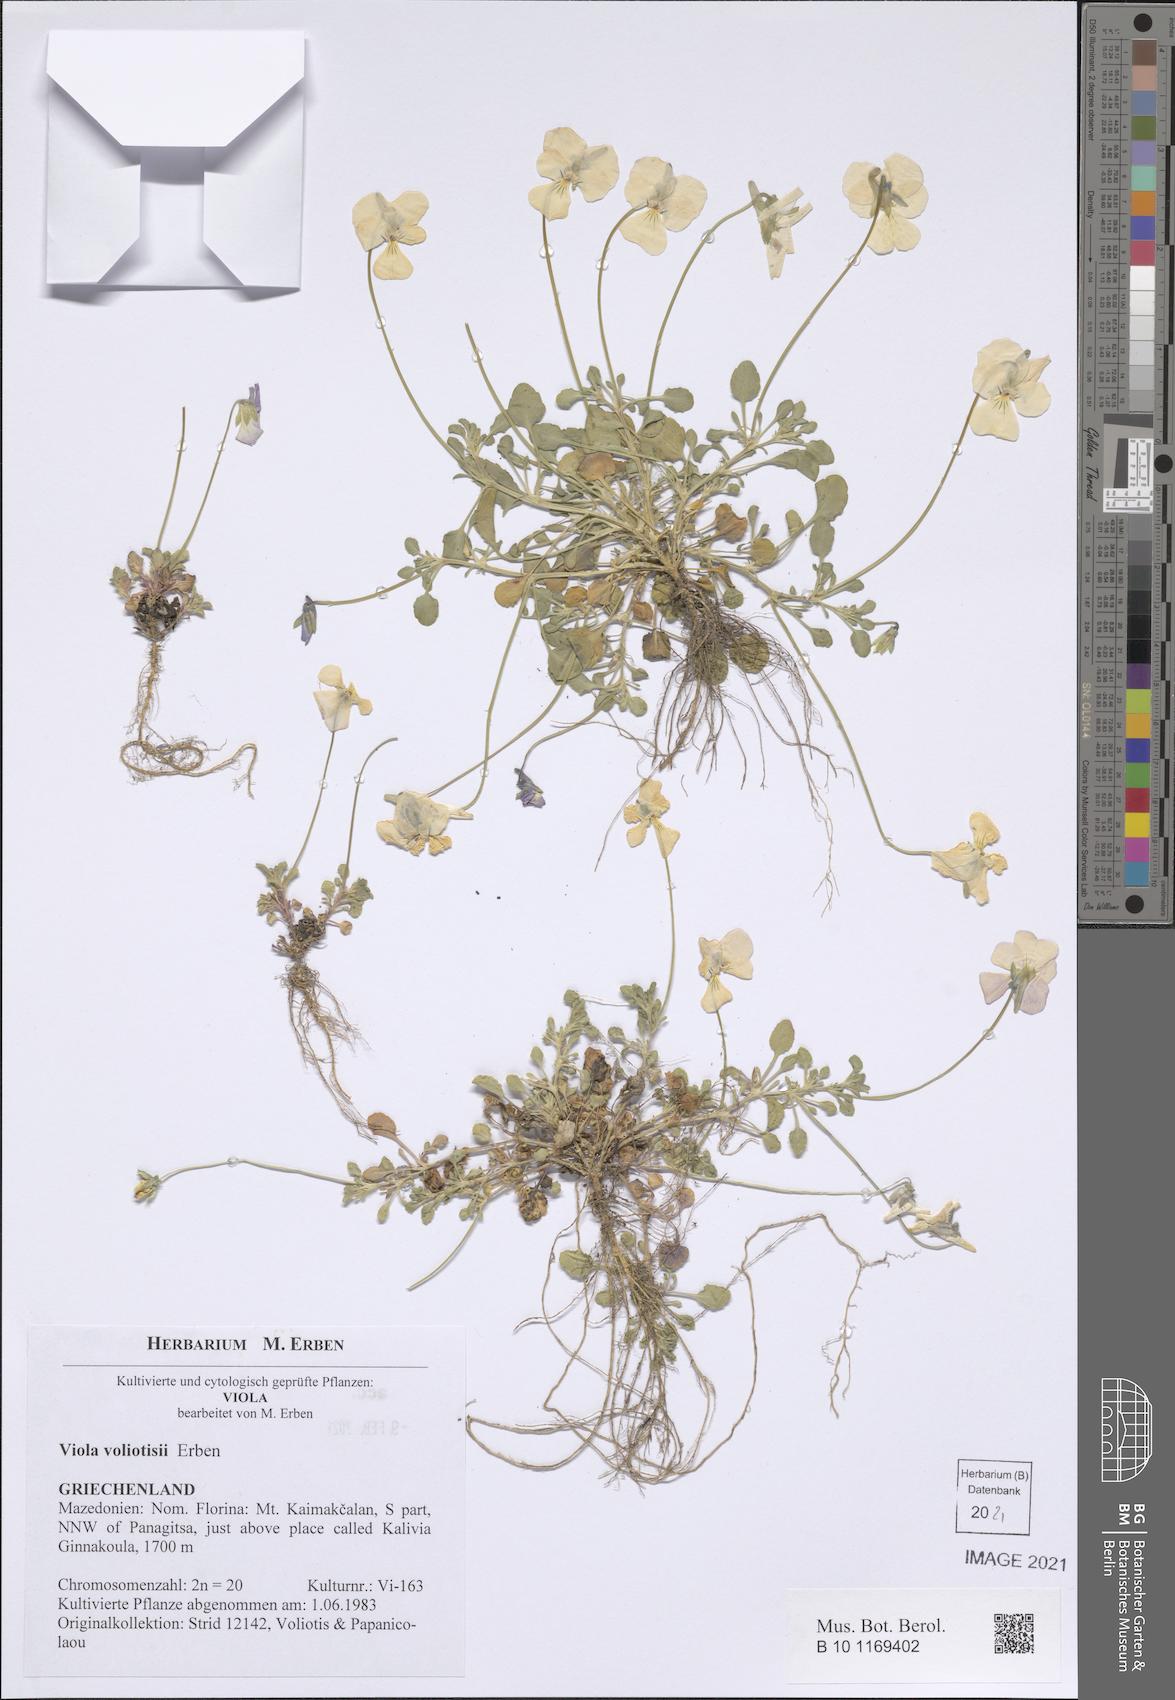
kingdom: Plantae
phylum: Tracheophyta
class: Magnoliopsida
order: Malpighiales
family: Violaceae
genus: Viola
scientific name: Viola voliotisii
